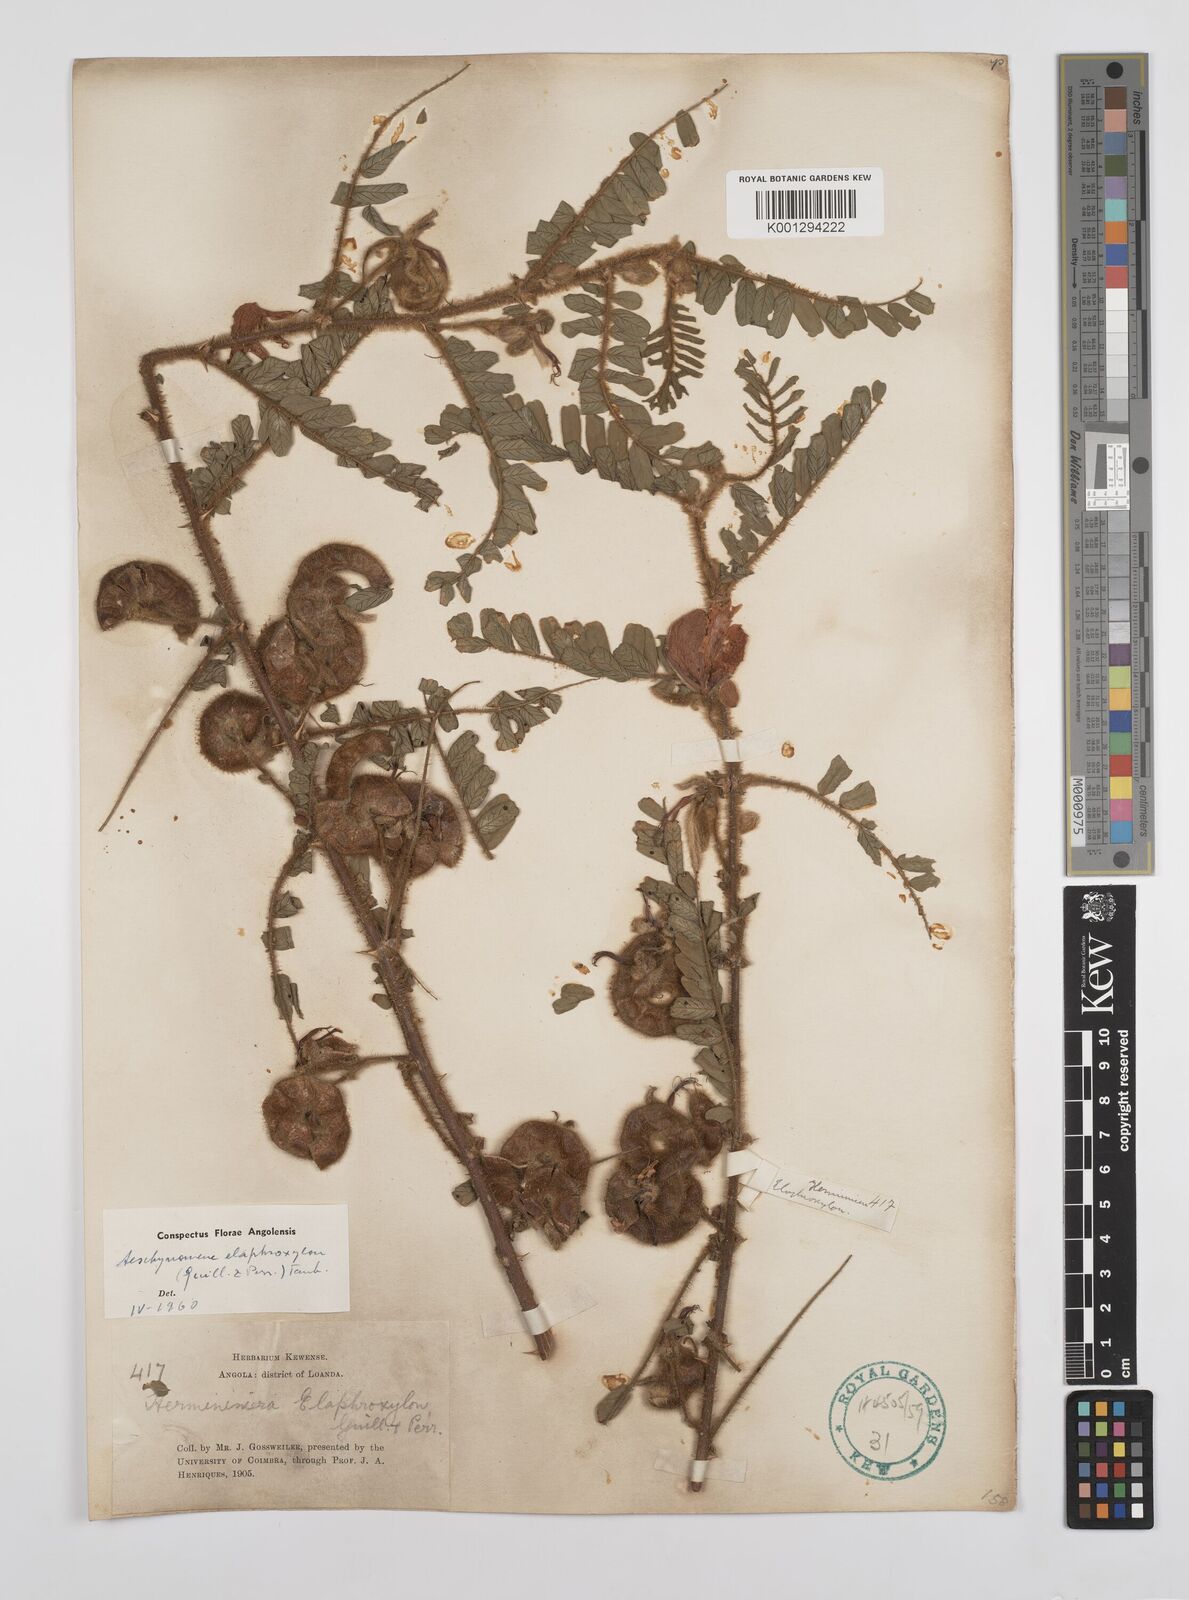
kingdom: Plantae
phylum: Tracheophyta
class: Magnoliopsida
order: Fabales
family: Fabaceae
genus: Aeschynomene
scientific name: Aeschynomene elaphroxylon
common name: Ambatch
